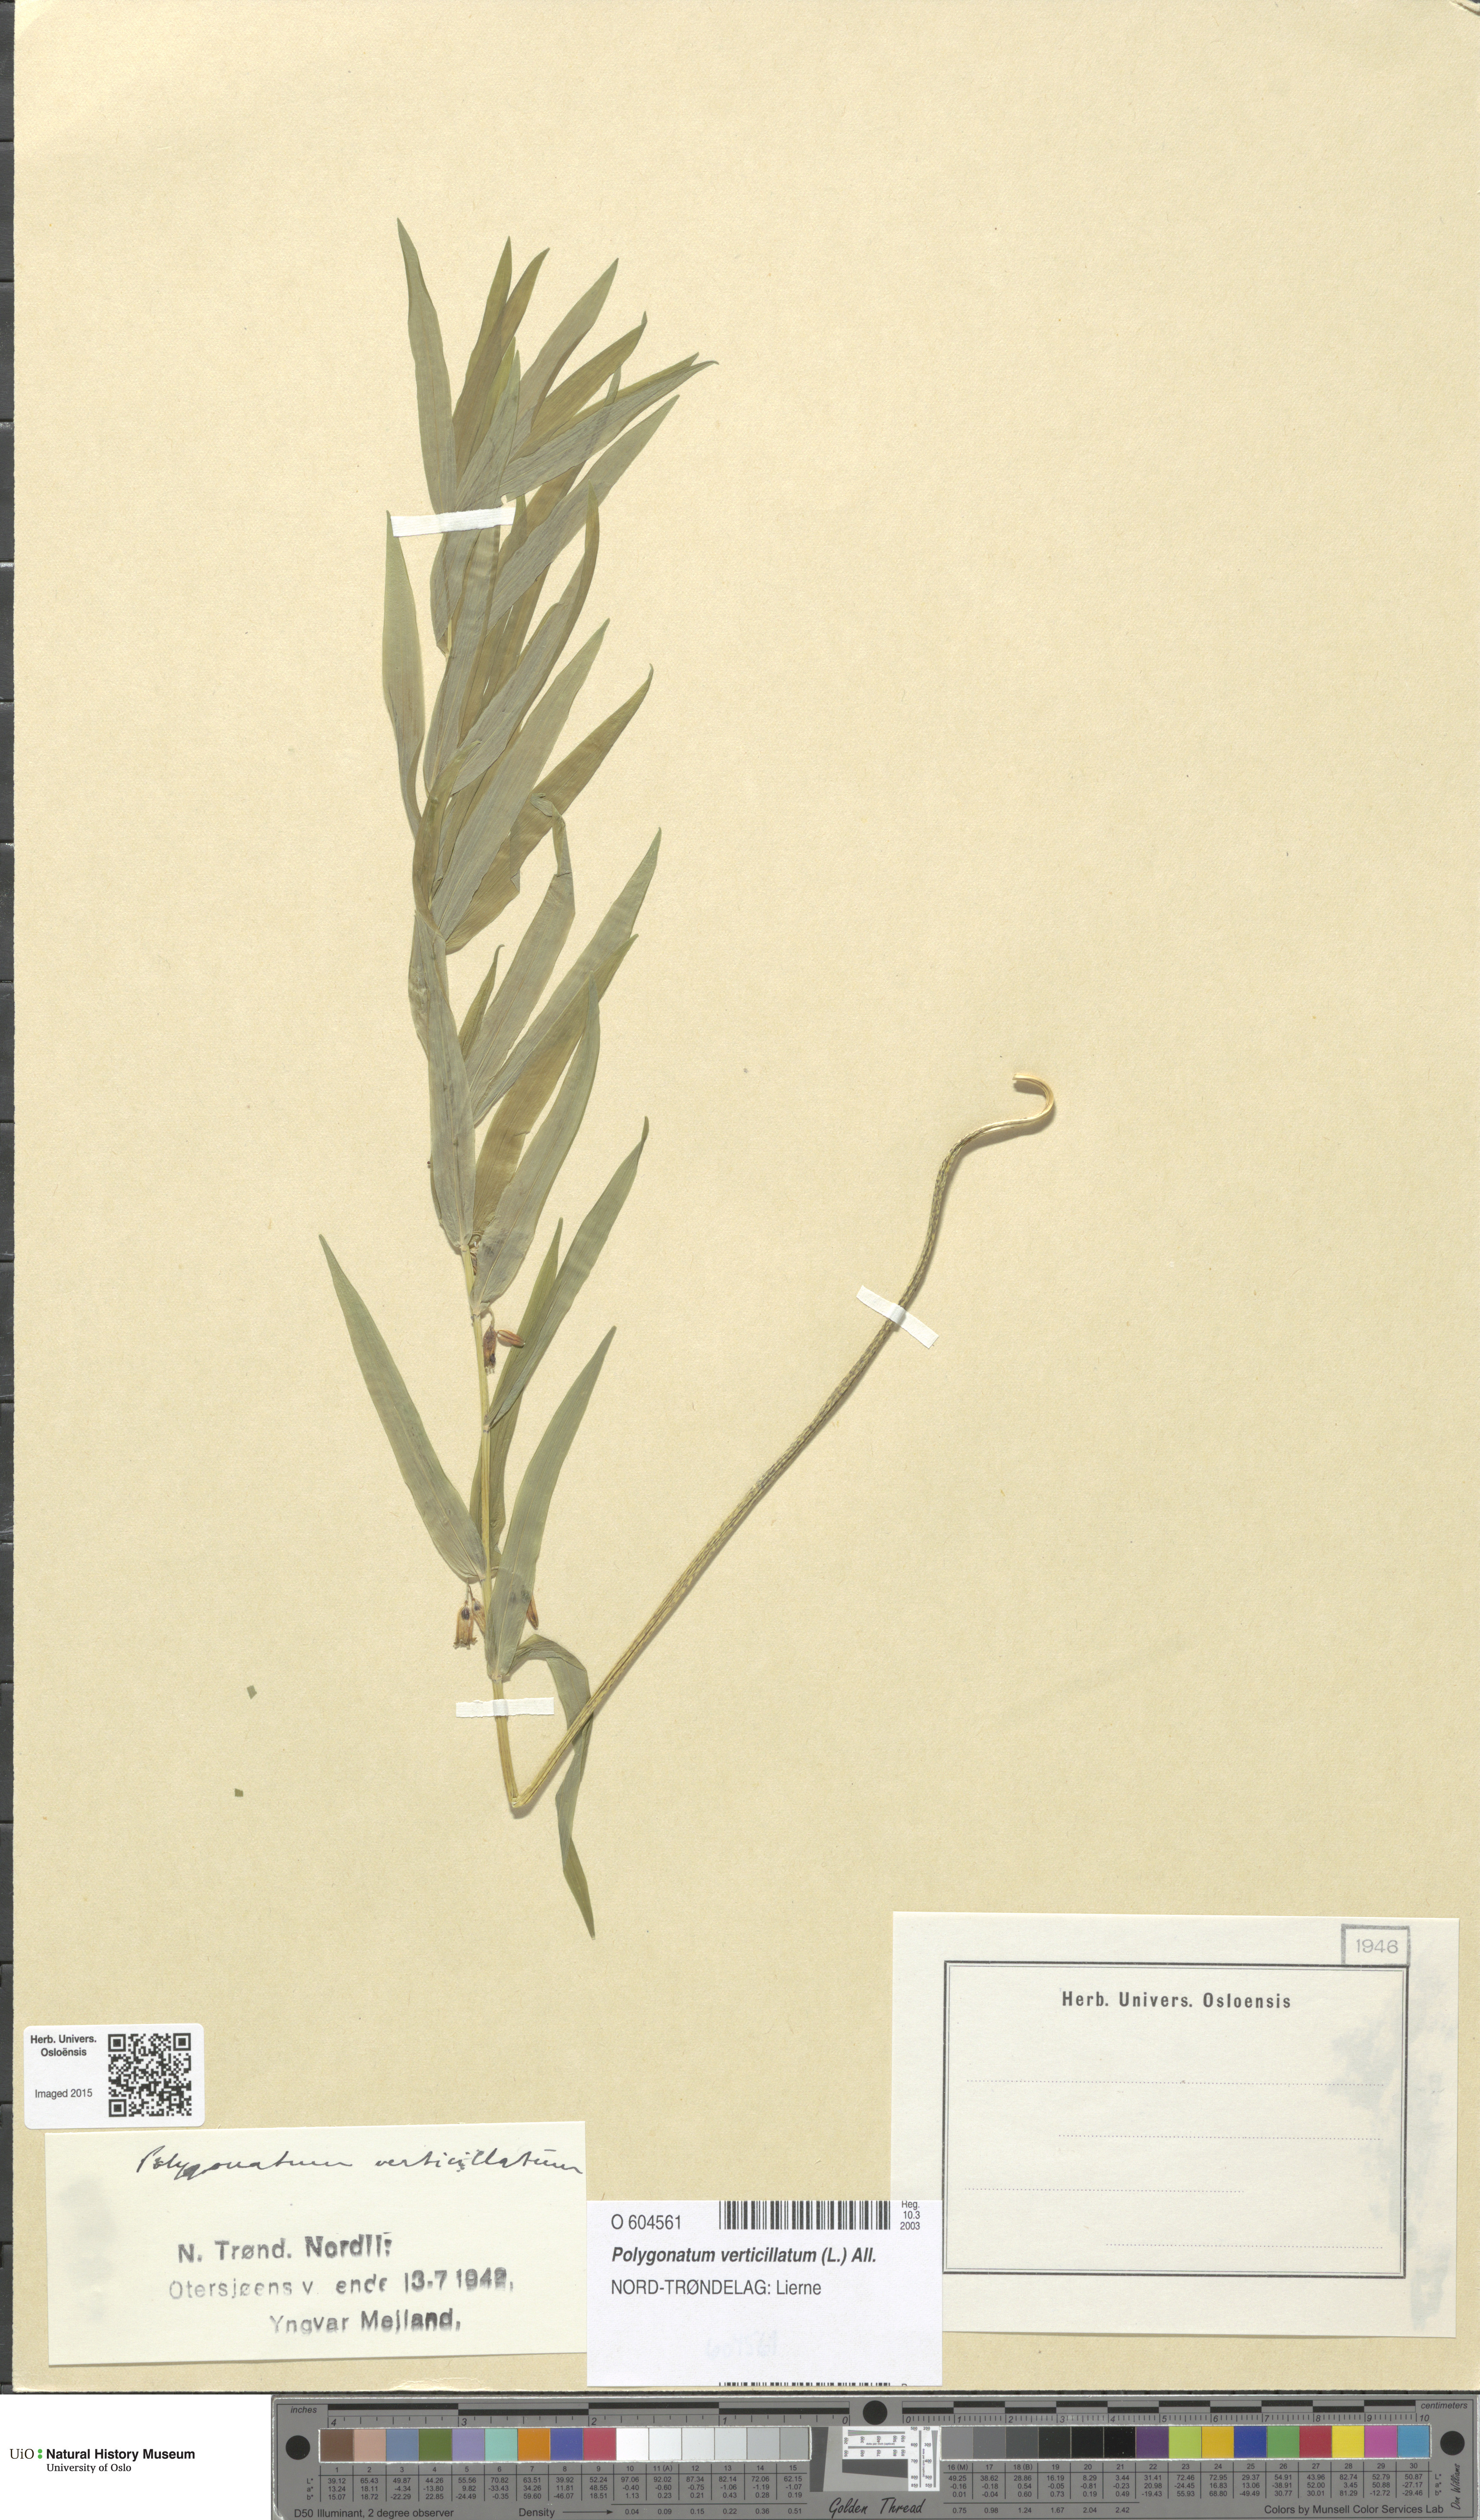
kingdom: Plantae
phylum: Tracheophyta
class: Liliopsida
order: Asparagales
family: Asparagaceae
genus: Polygonatum
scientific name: Polygonatum verticillatum
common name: Whorled solomon's-seal
